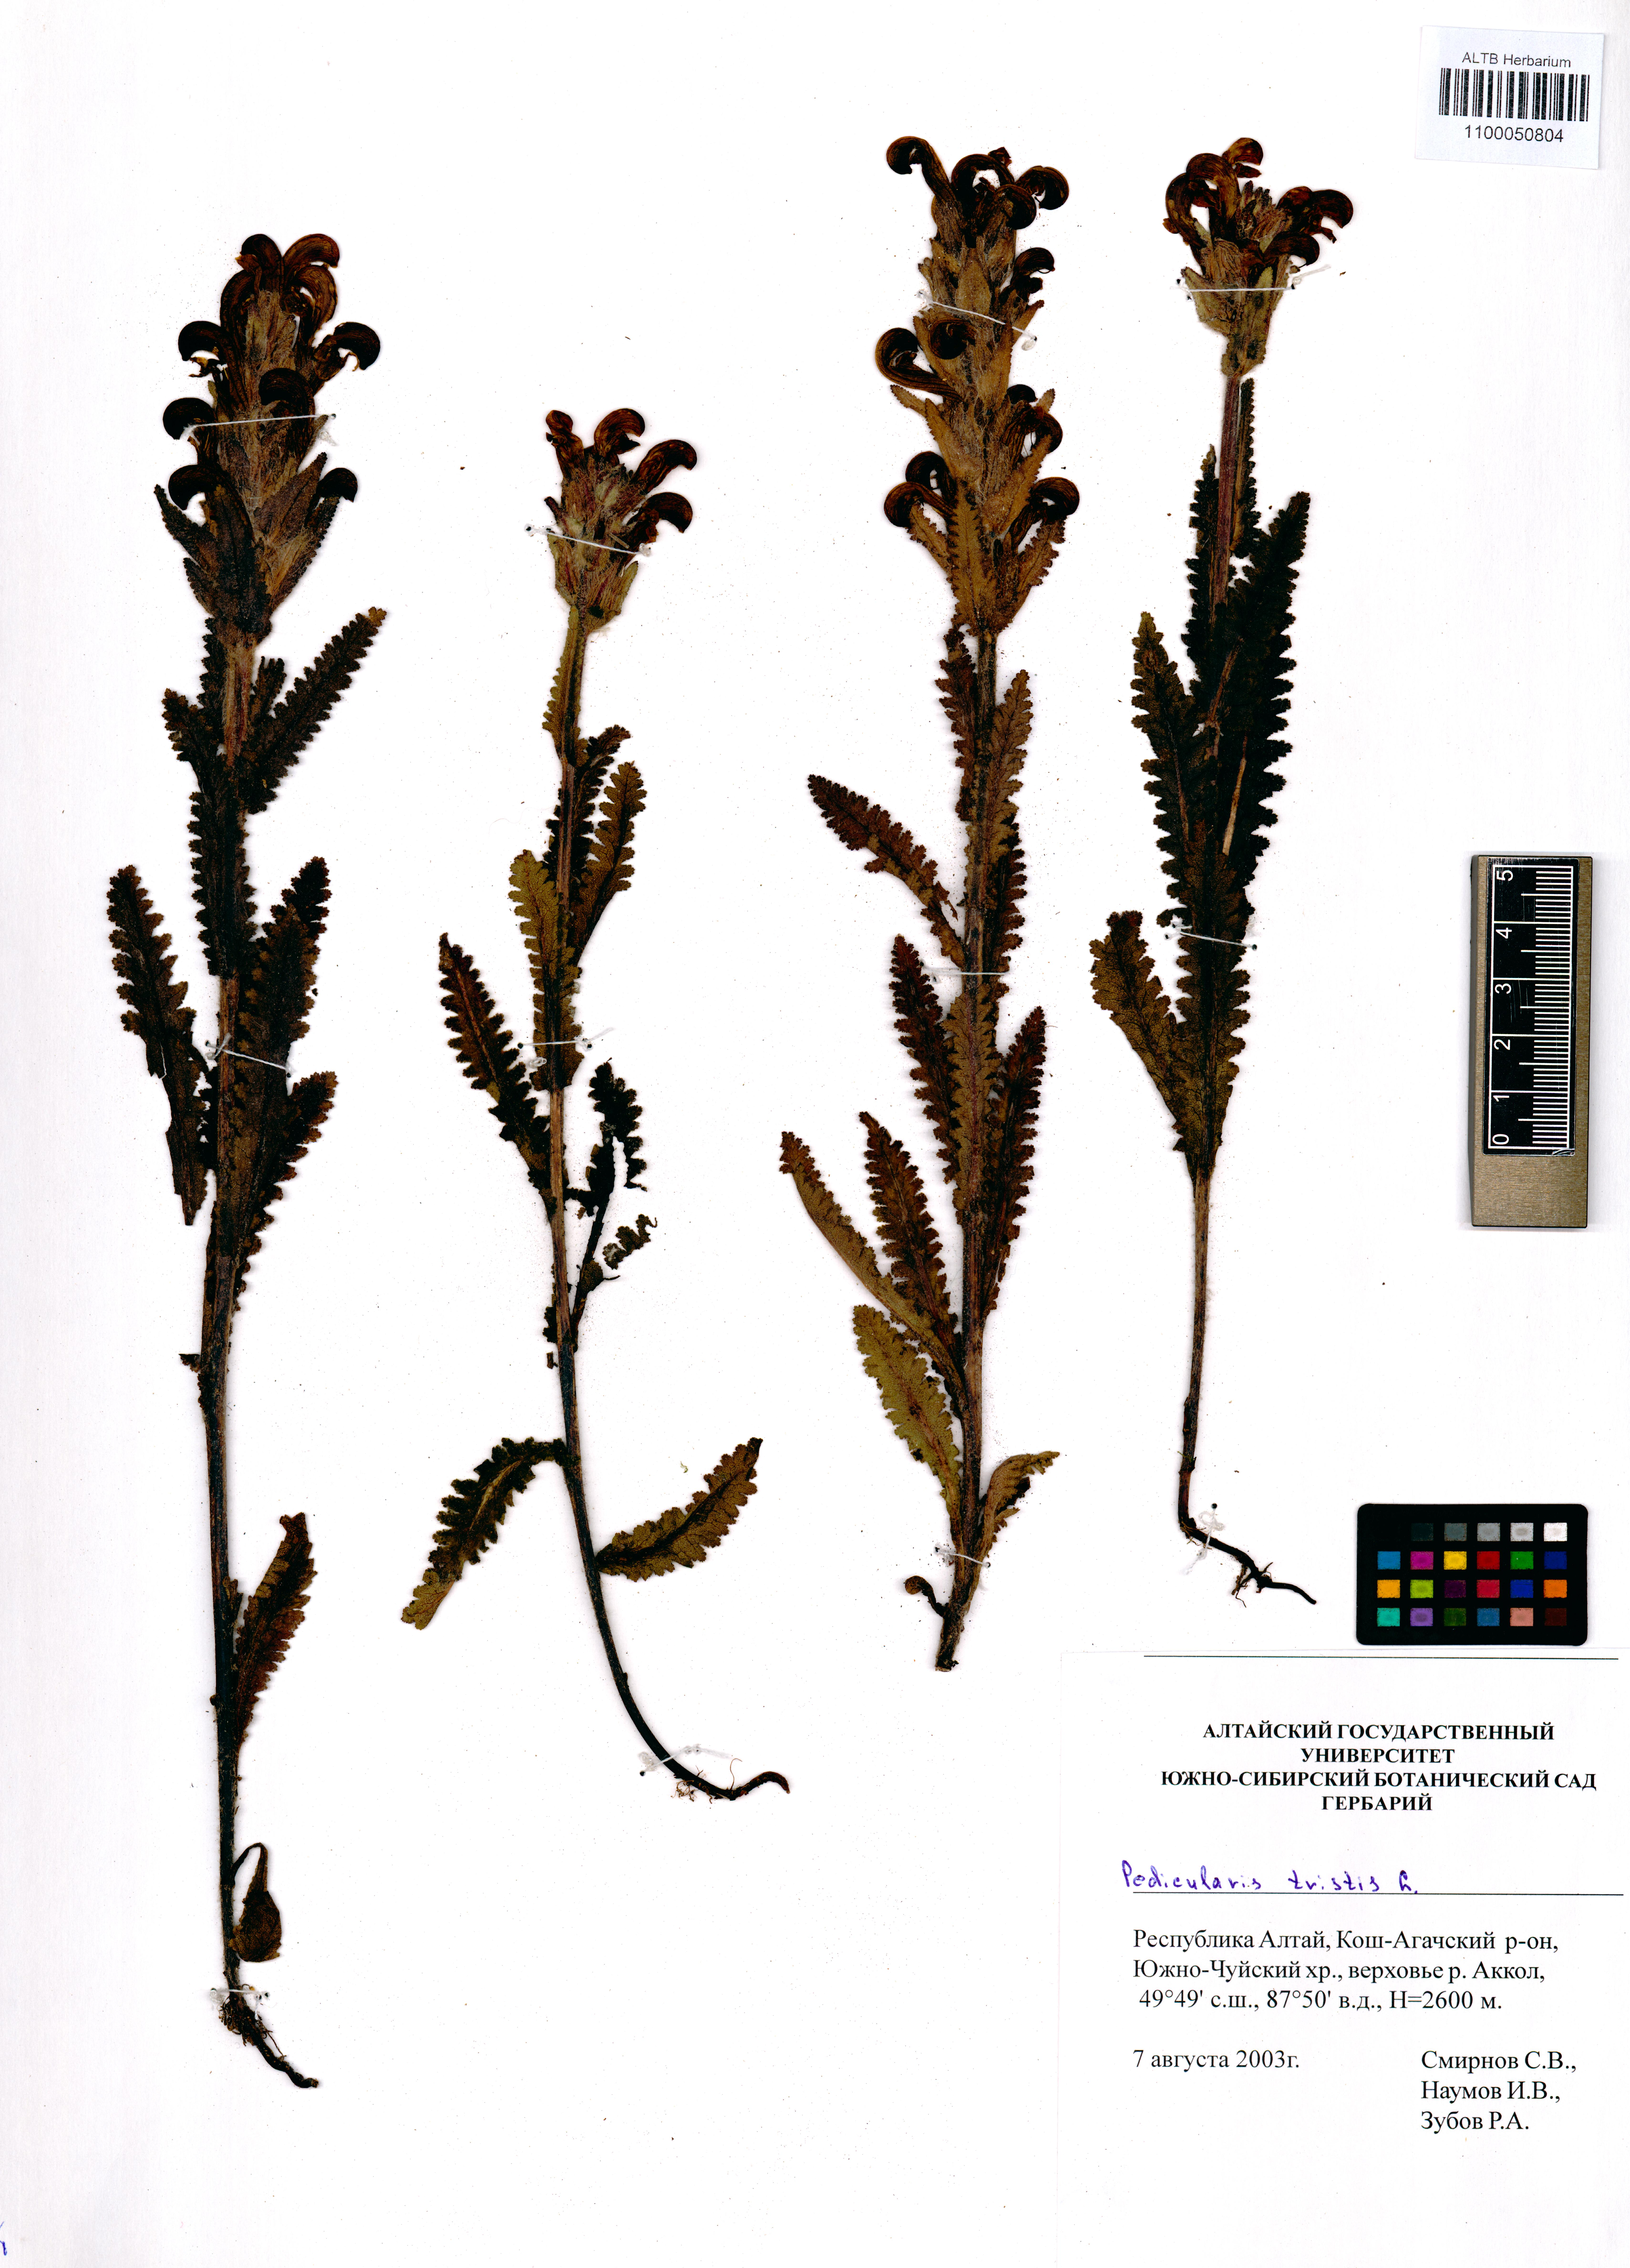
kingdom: Plantae
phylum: Tracheophyta
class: Magnoliopsida
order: Lamiales
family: Orobanchaceae
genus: Pedicularis
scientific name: Pedicularis tristis
